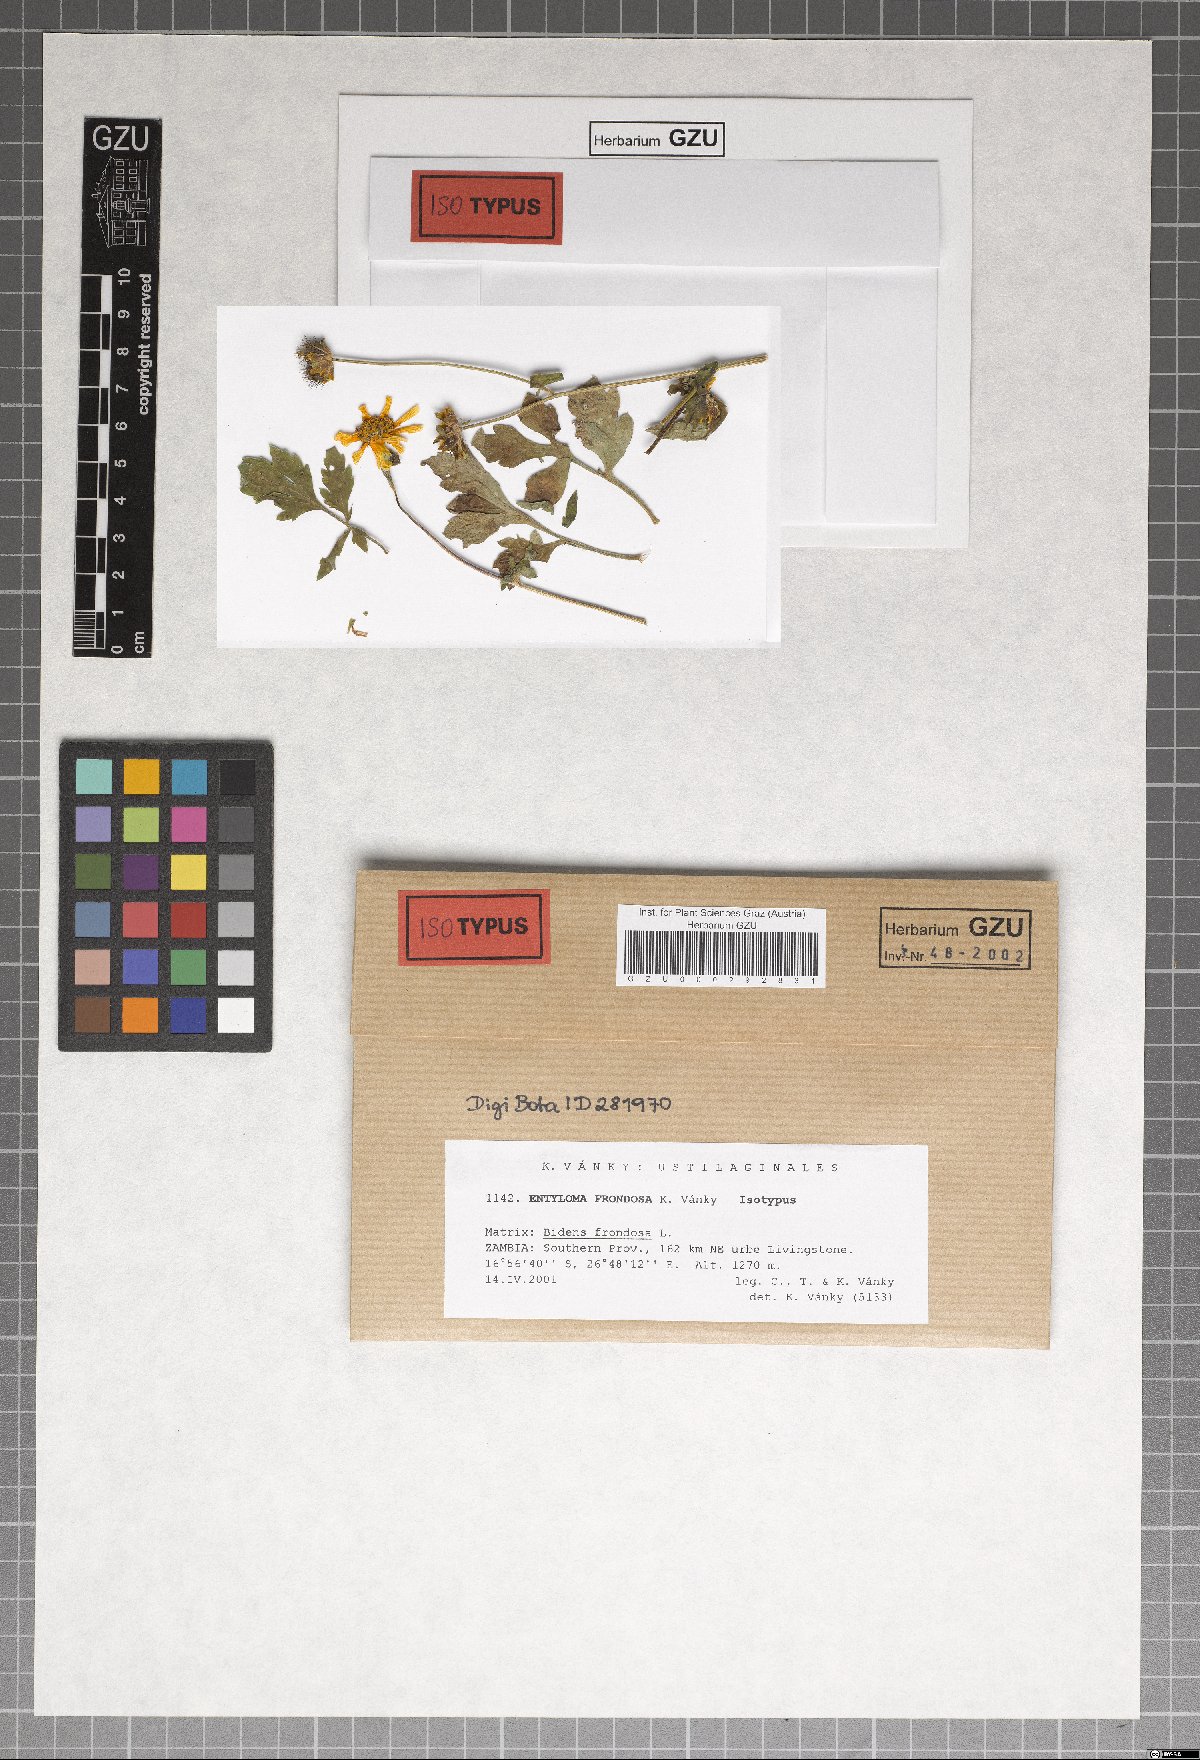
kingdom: Fungi
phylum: Basidiomycota
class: Exobasidiomycetes
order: Entylomatales
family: Entylomataceae
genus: Entyloma
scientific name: Entyloma frondosa
